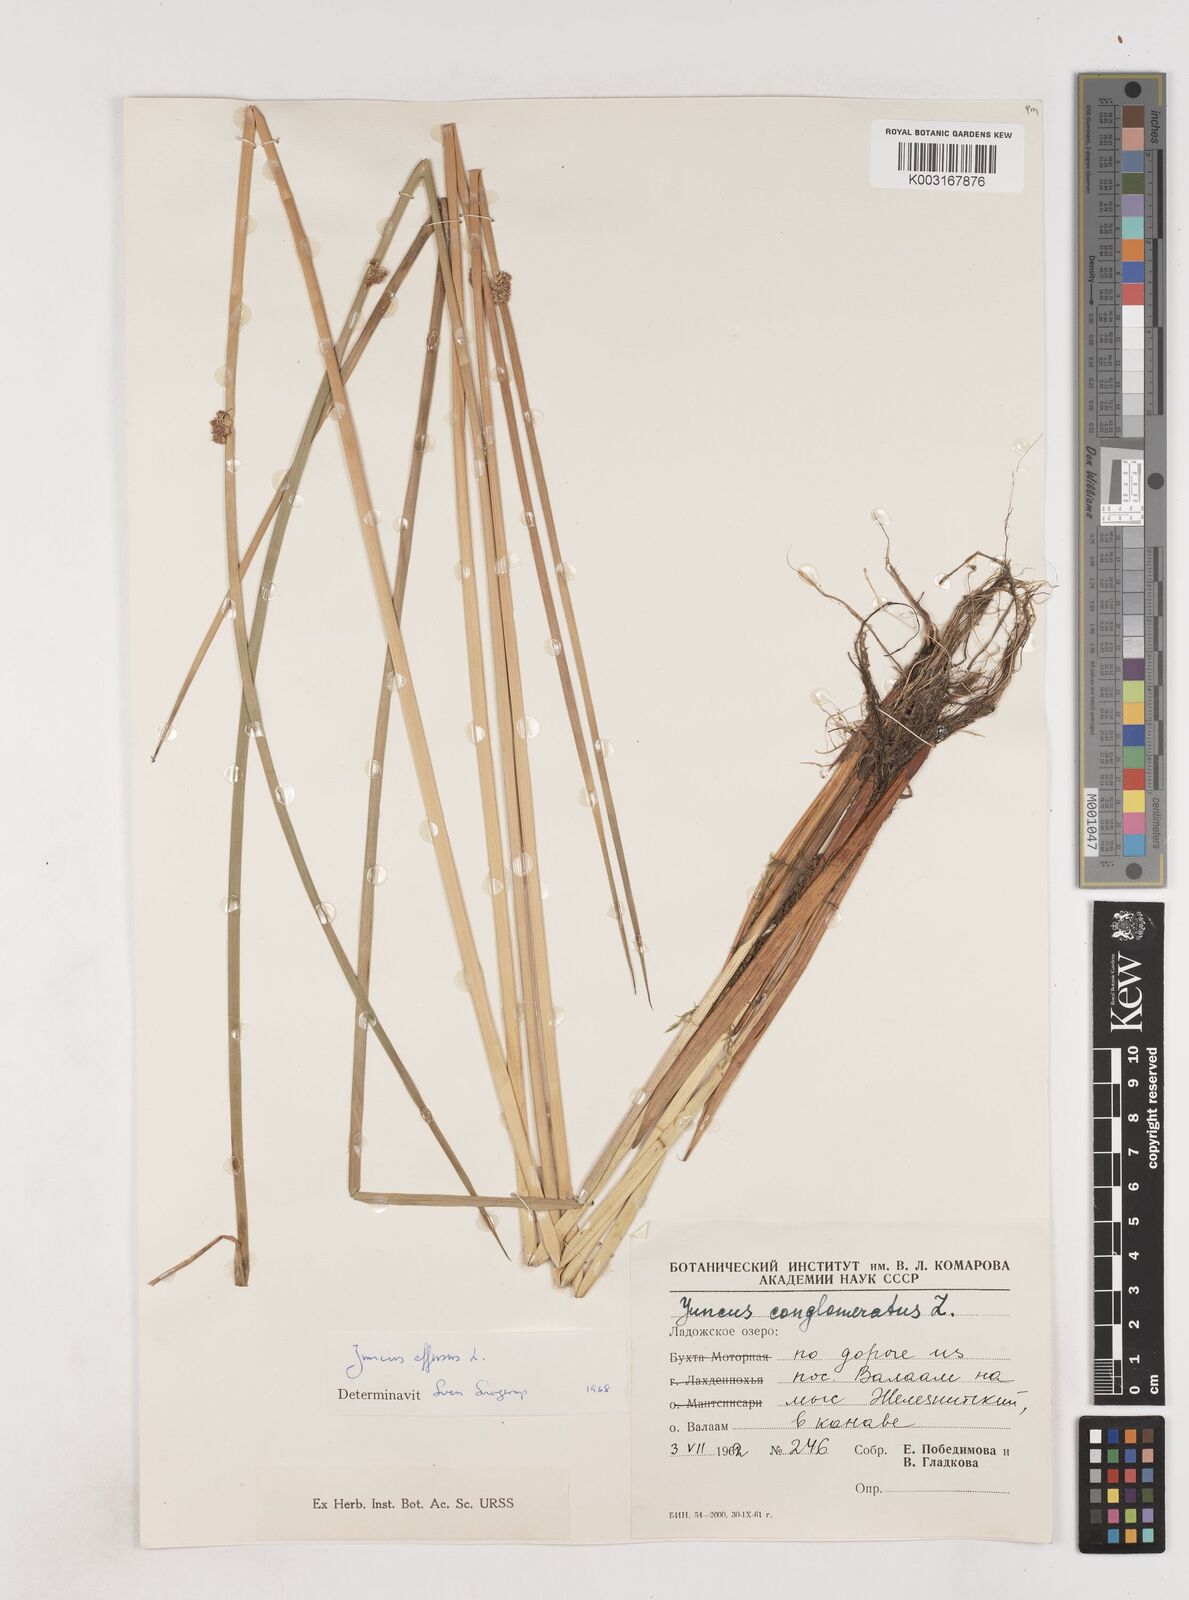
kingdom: Plantae
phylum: Tracheophyta
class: Liliopsida
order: Poales
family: Juncaceae
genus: Juncus
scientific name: Juncus effusus
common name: Soft rush
